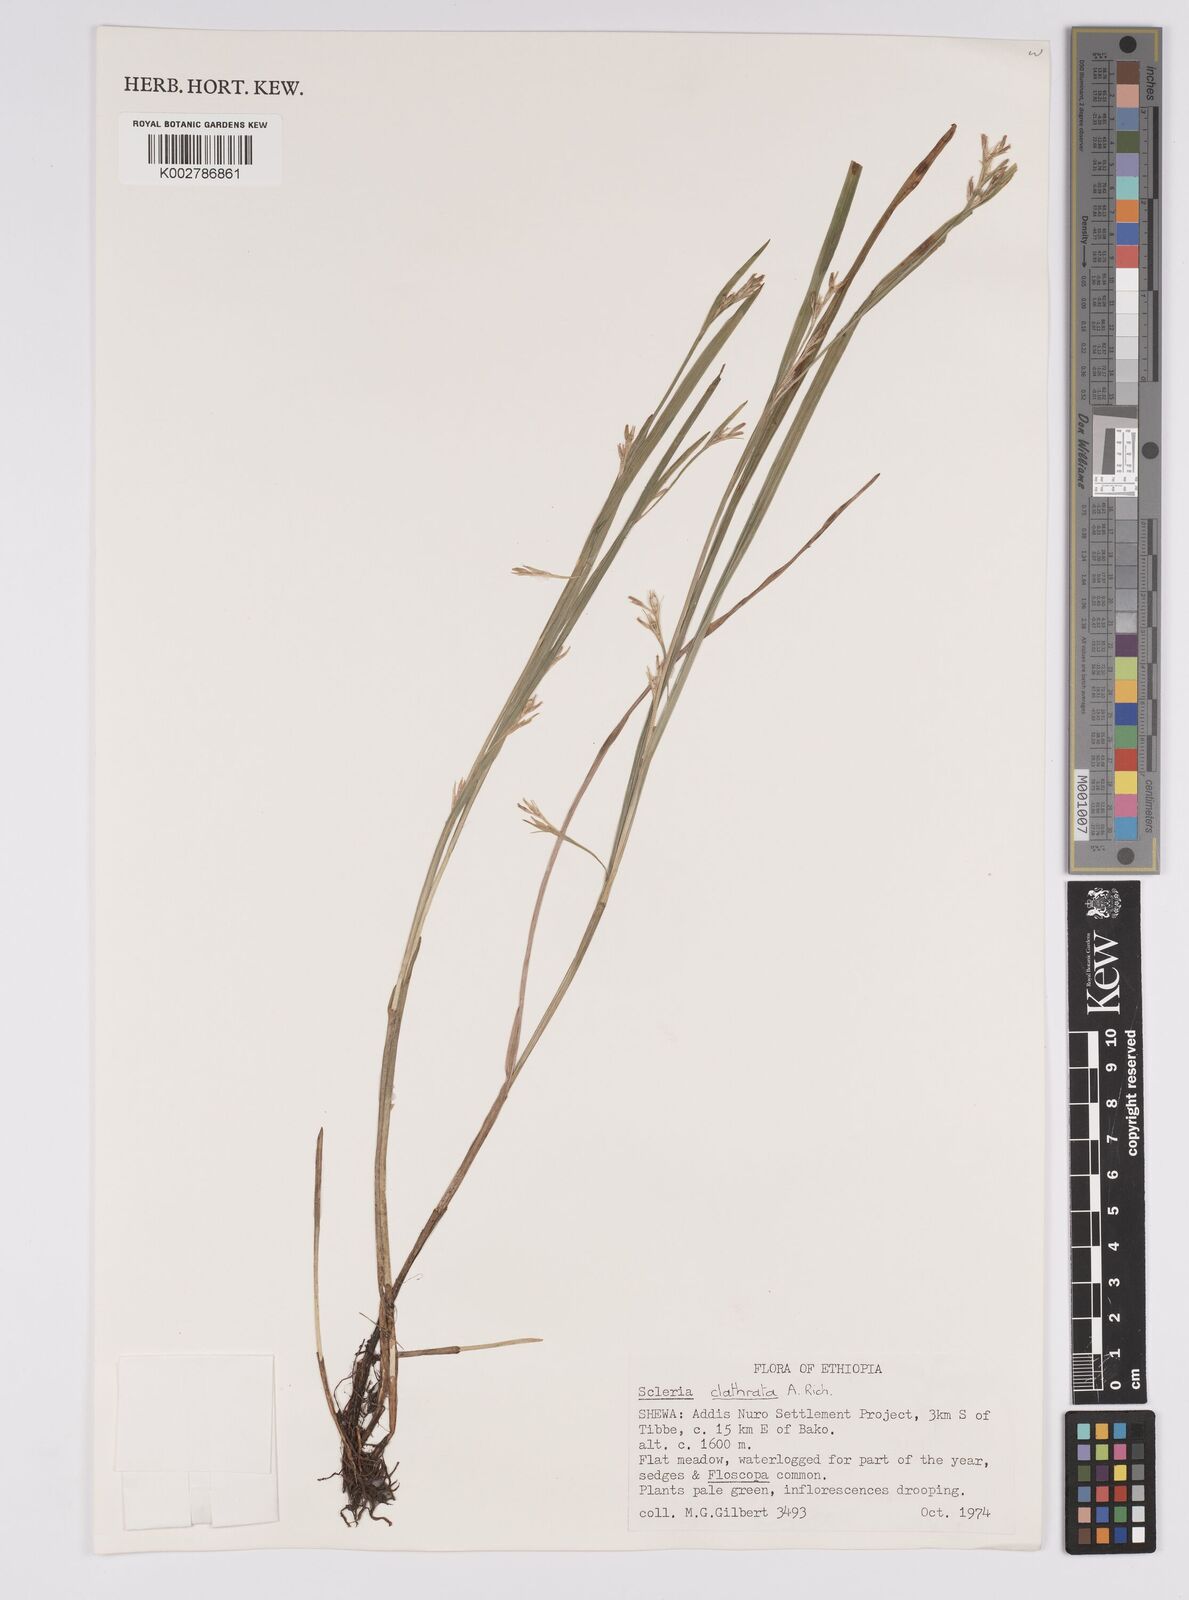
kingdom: Plantae
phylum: Tracheophyta
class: Liliopsida
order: Poales
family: Cyperaceae
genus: Scleria
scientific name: Scleria clathrata
